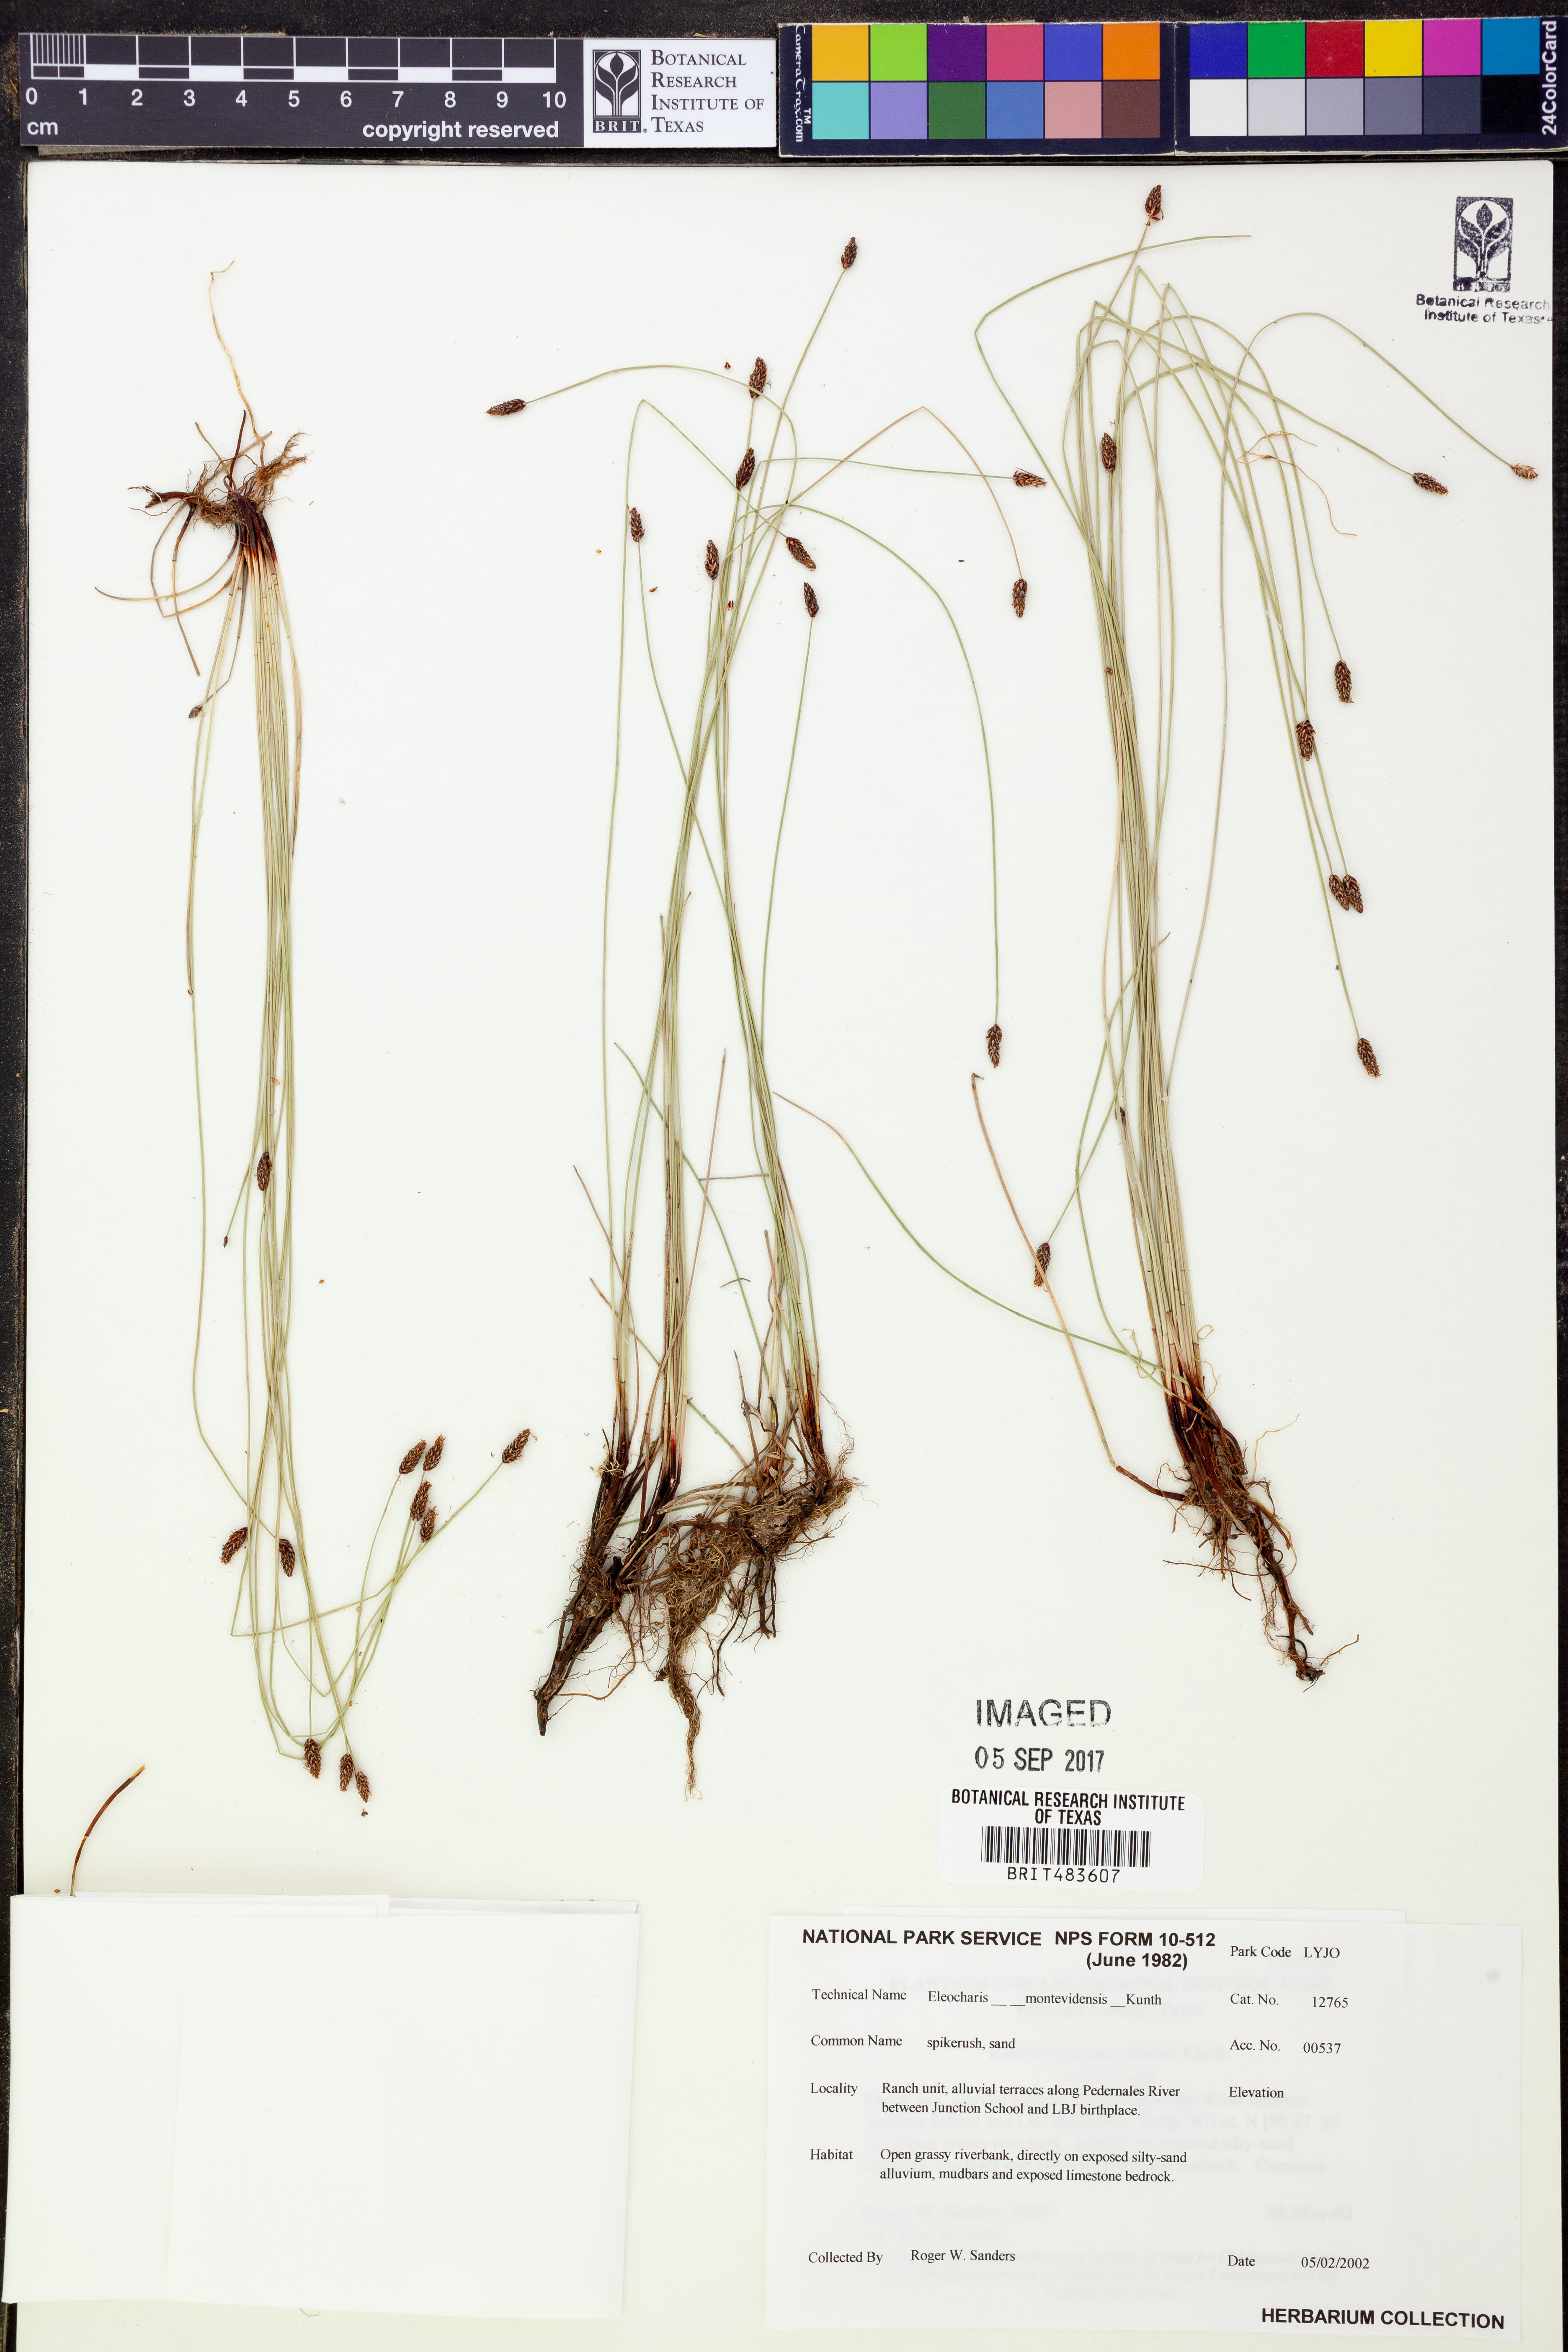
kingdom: Plantae
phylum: Tracheophyta
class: Liliopsida
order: Poales
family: Cyperaceae
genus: Eleocharis
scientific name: Eleocharis montevidensis
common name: Sand spike-rush
